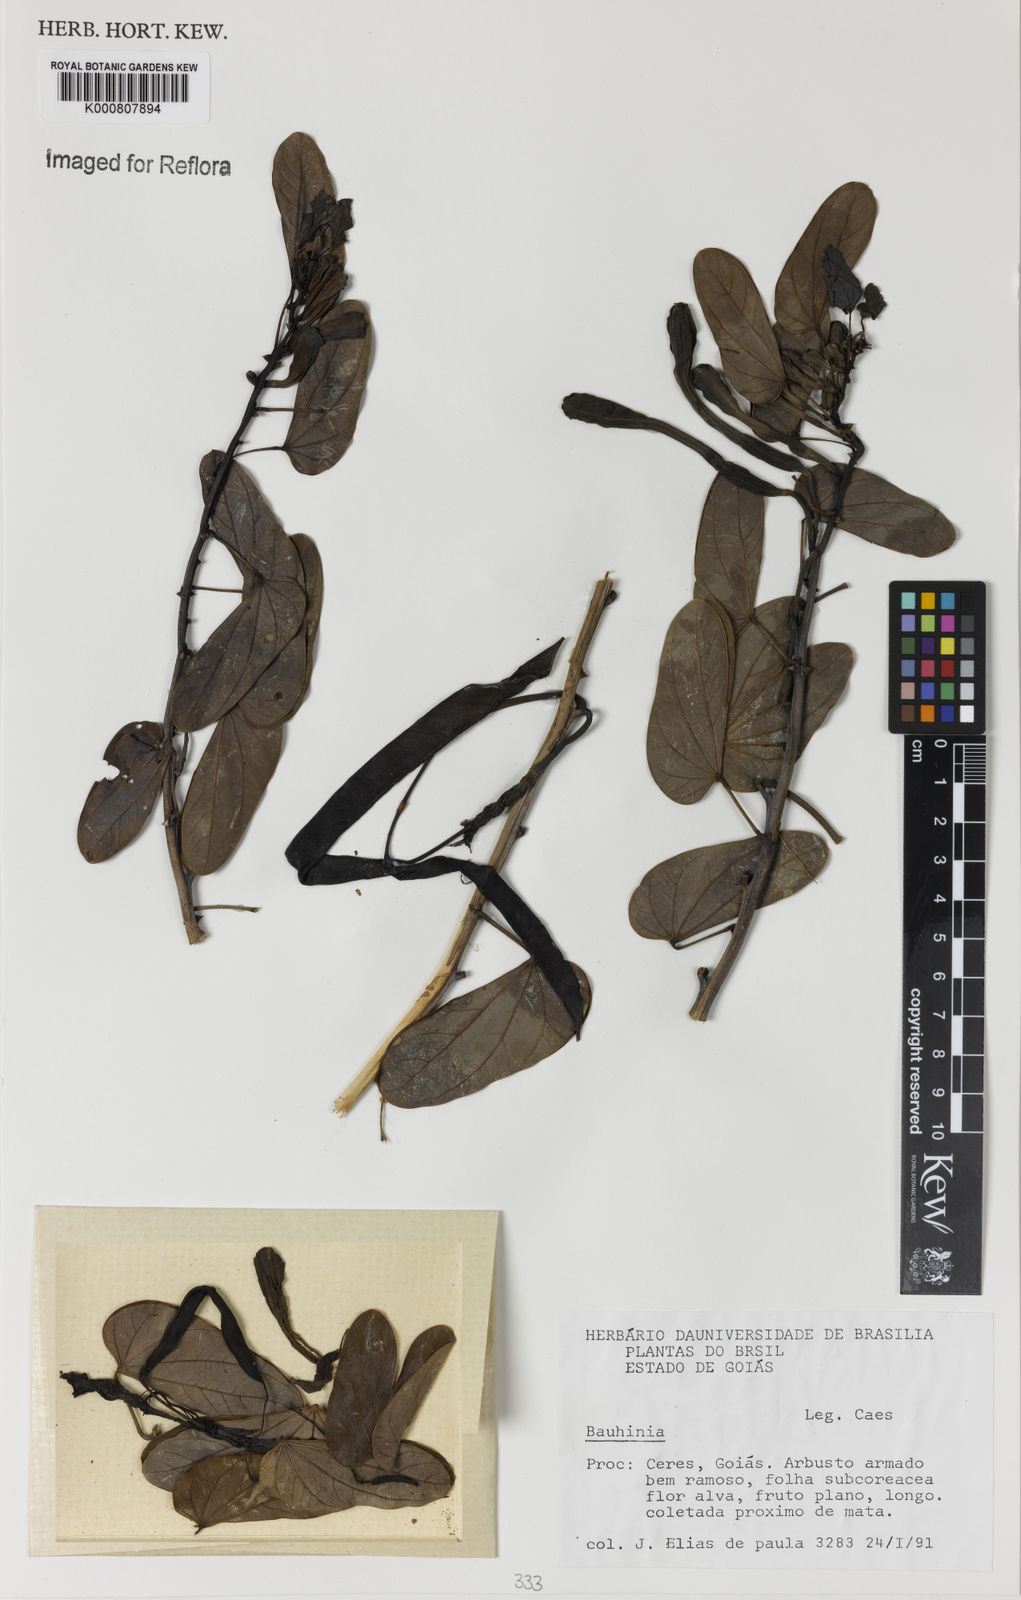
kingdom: Plantae
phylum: Tracheophyta
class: Magnoliopsida
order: Fabales
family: Fabaceae
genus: Bauhinia
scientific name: Bauhinia
